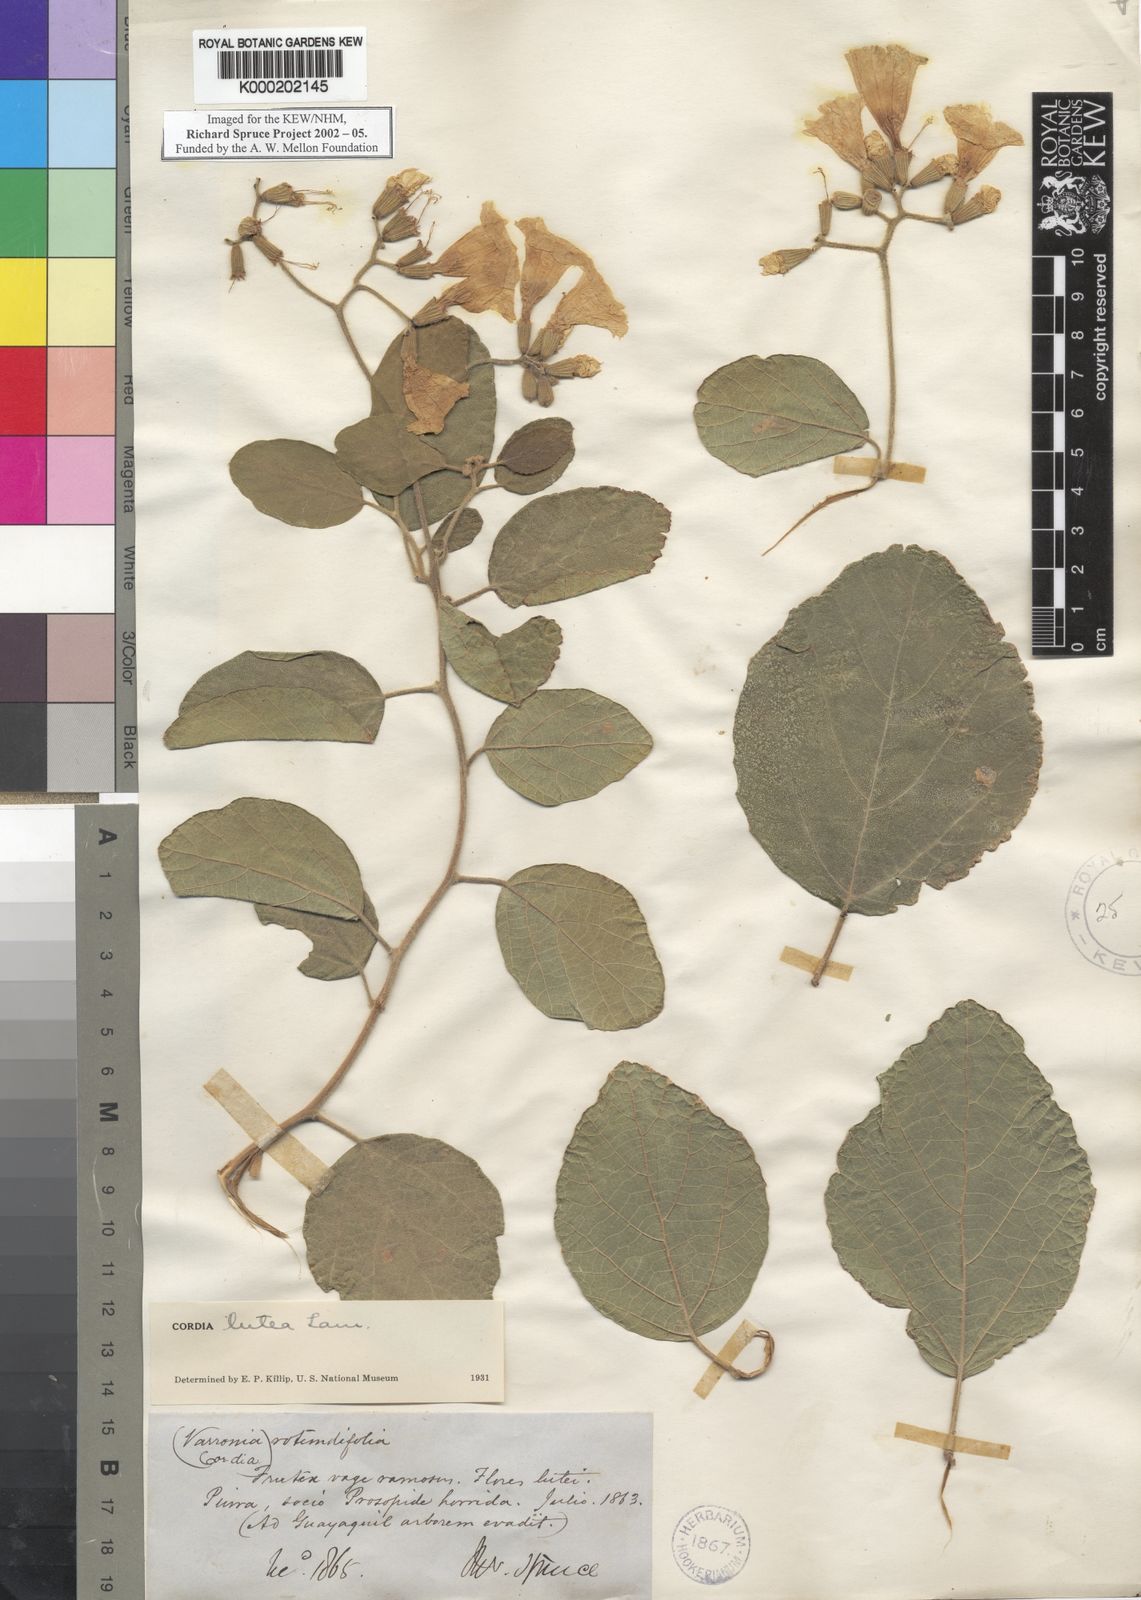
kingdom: Plantae
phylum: Tracheophyta
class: Magnoliopsida
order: Boraginales
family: Cordiaceae
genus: Cordia
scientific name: Cordia lutea
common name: Yellow geiger
